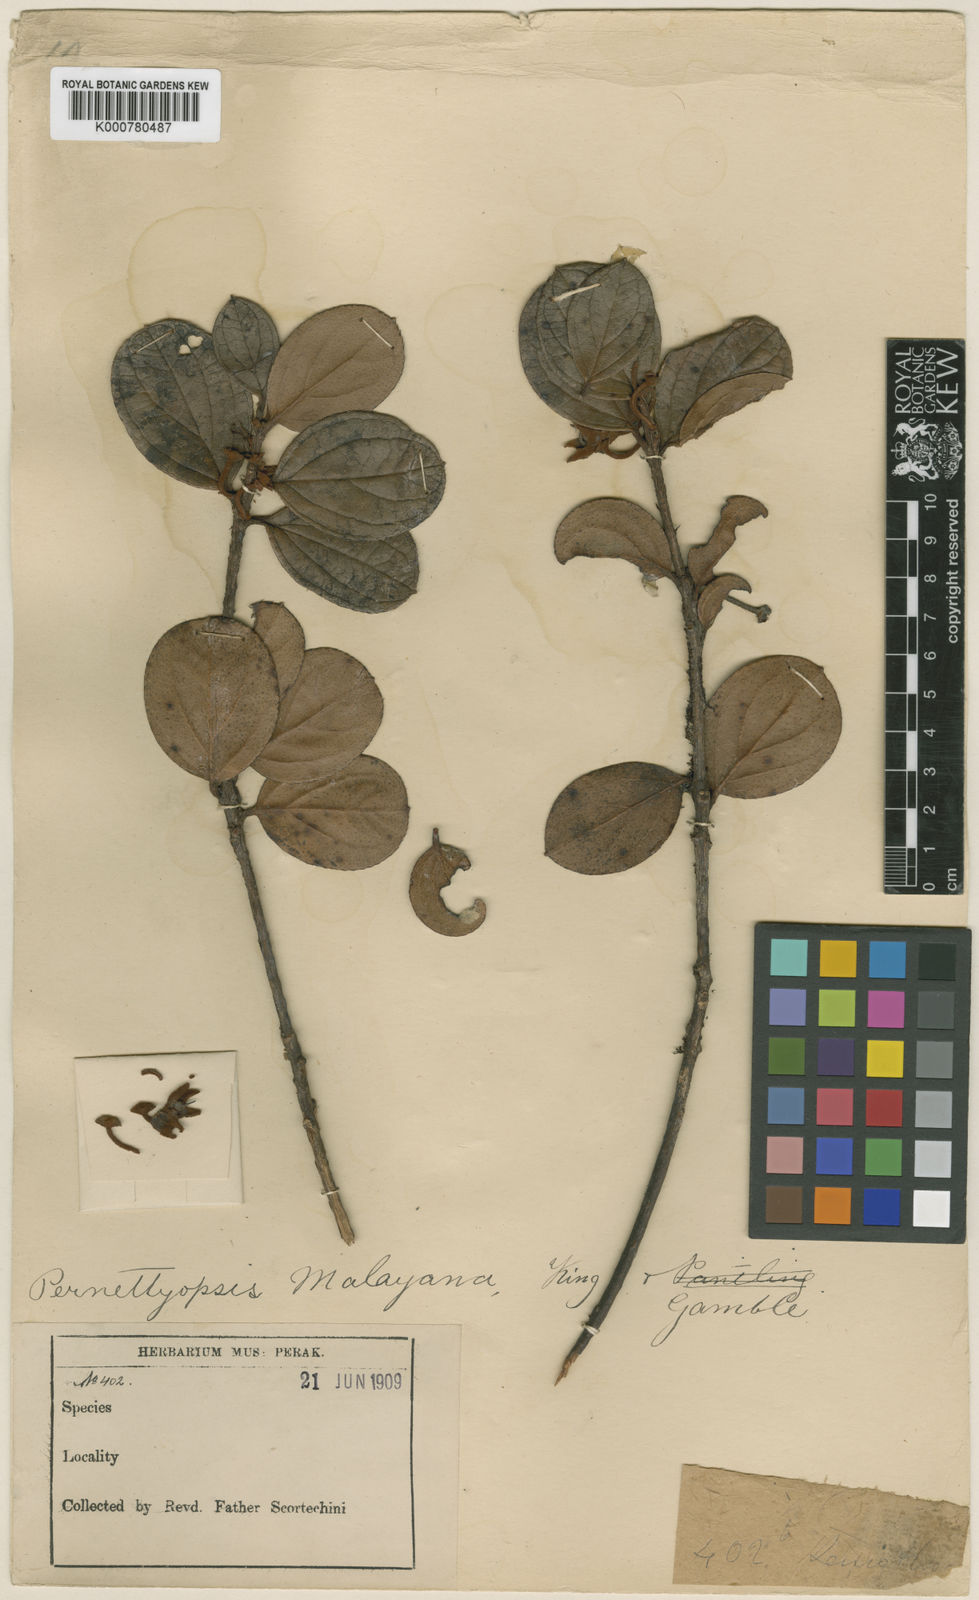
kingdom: Plantae
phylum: Tracheophyta
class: Magnoliopsida
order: Ericales
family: Ericaceae
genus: Gaultheria
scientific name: Gaultheria macrocalyx
